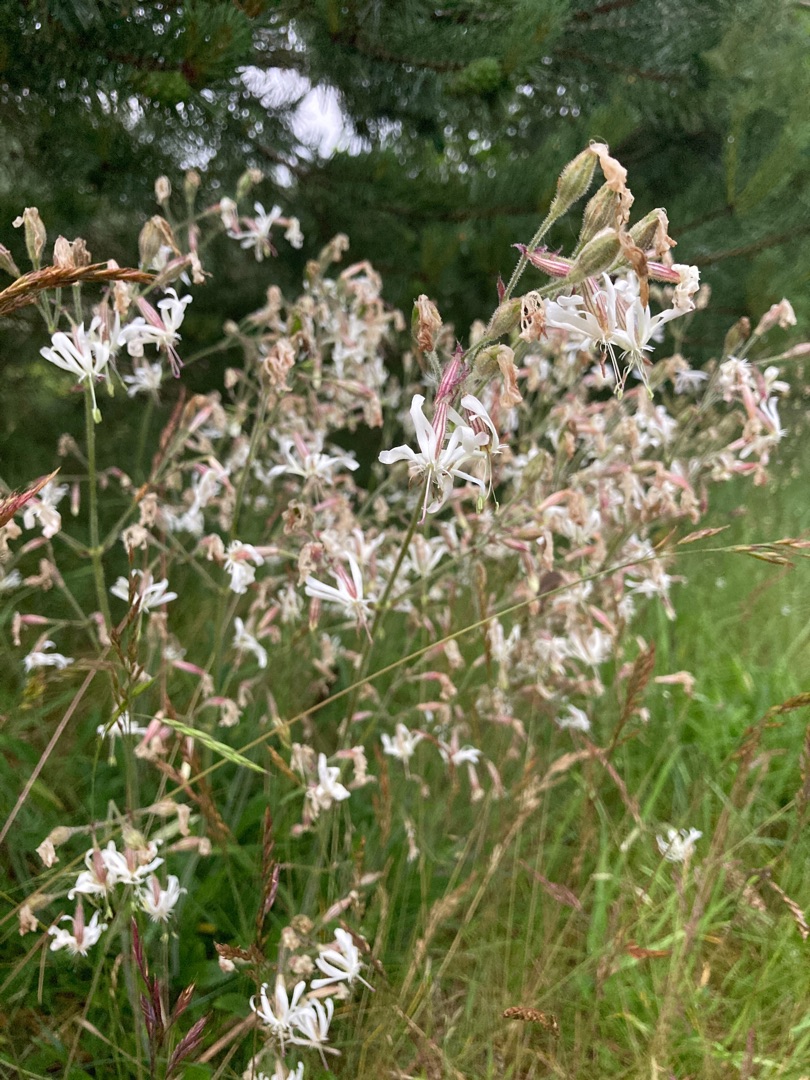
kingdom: Plantae
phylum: Tracheophyta
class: Magnoliopsida
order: Caryophyllales
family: Caryophyllaceae
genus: Silene
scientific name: Silene nutans
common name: Nikkende limurt
